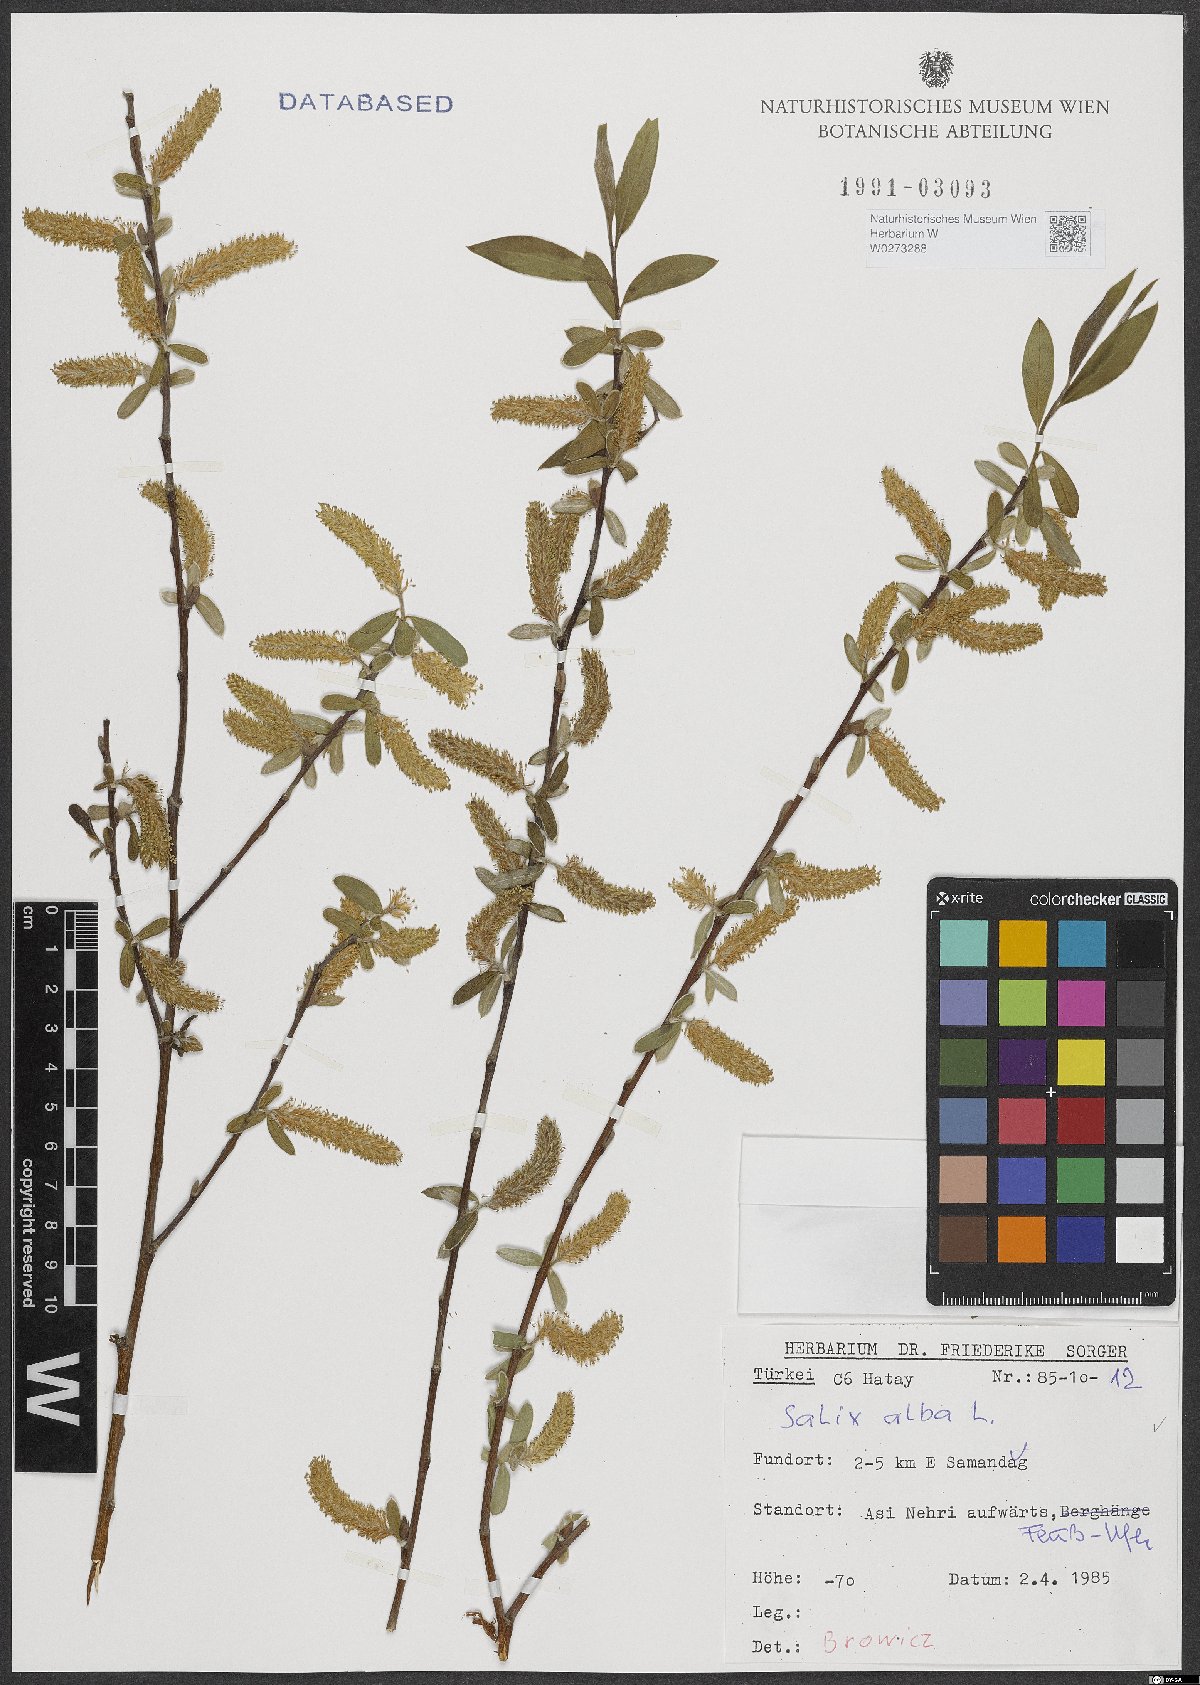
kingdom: Plantae
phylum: Tracheophyta
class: Magnoliopsida
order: Malpighiales
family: Salicaceae
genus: Salix
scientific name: Salix alba
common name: White willow
